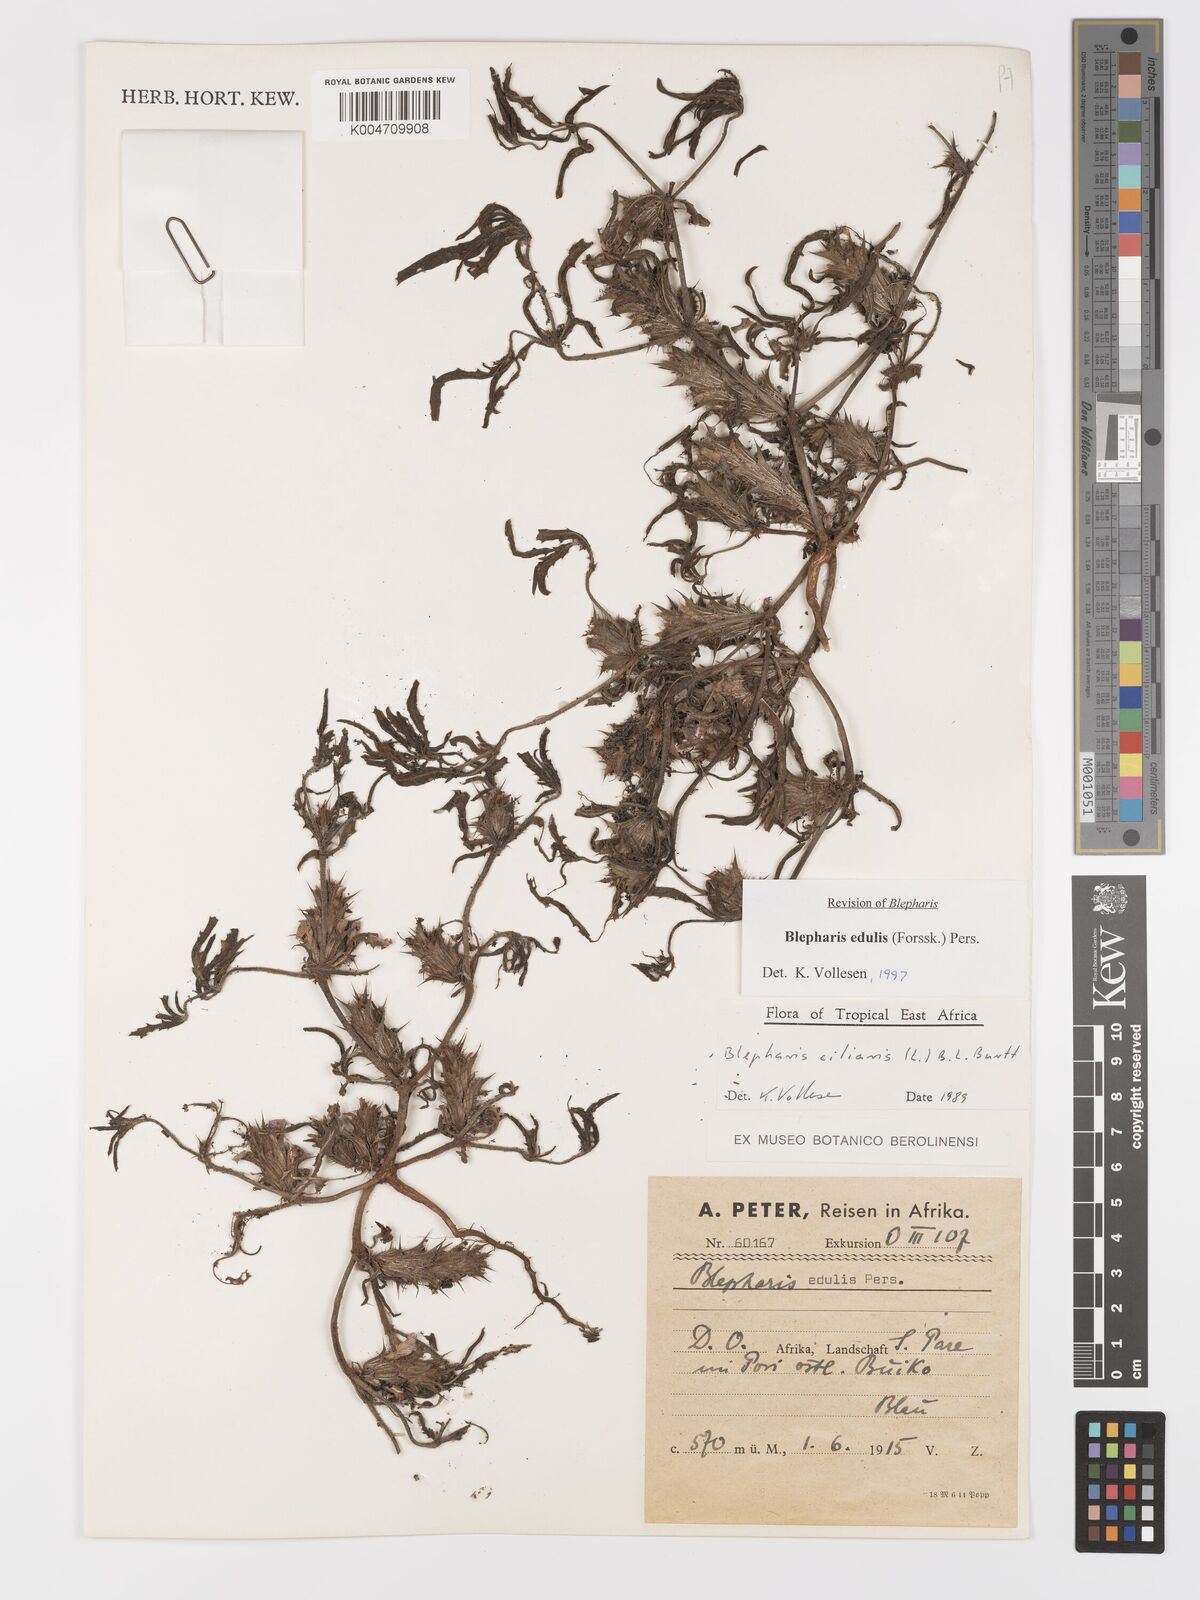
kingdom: Plantae
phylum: Tracheophyta
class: Magnoliopsida
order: Lamiales
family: Acanthaceae
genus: Blepharis
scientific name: Blepharis edulis
